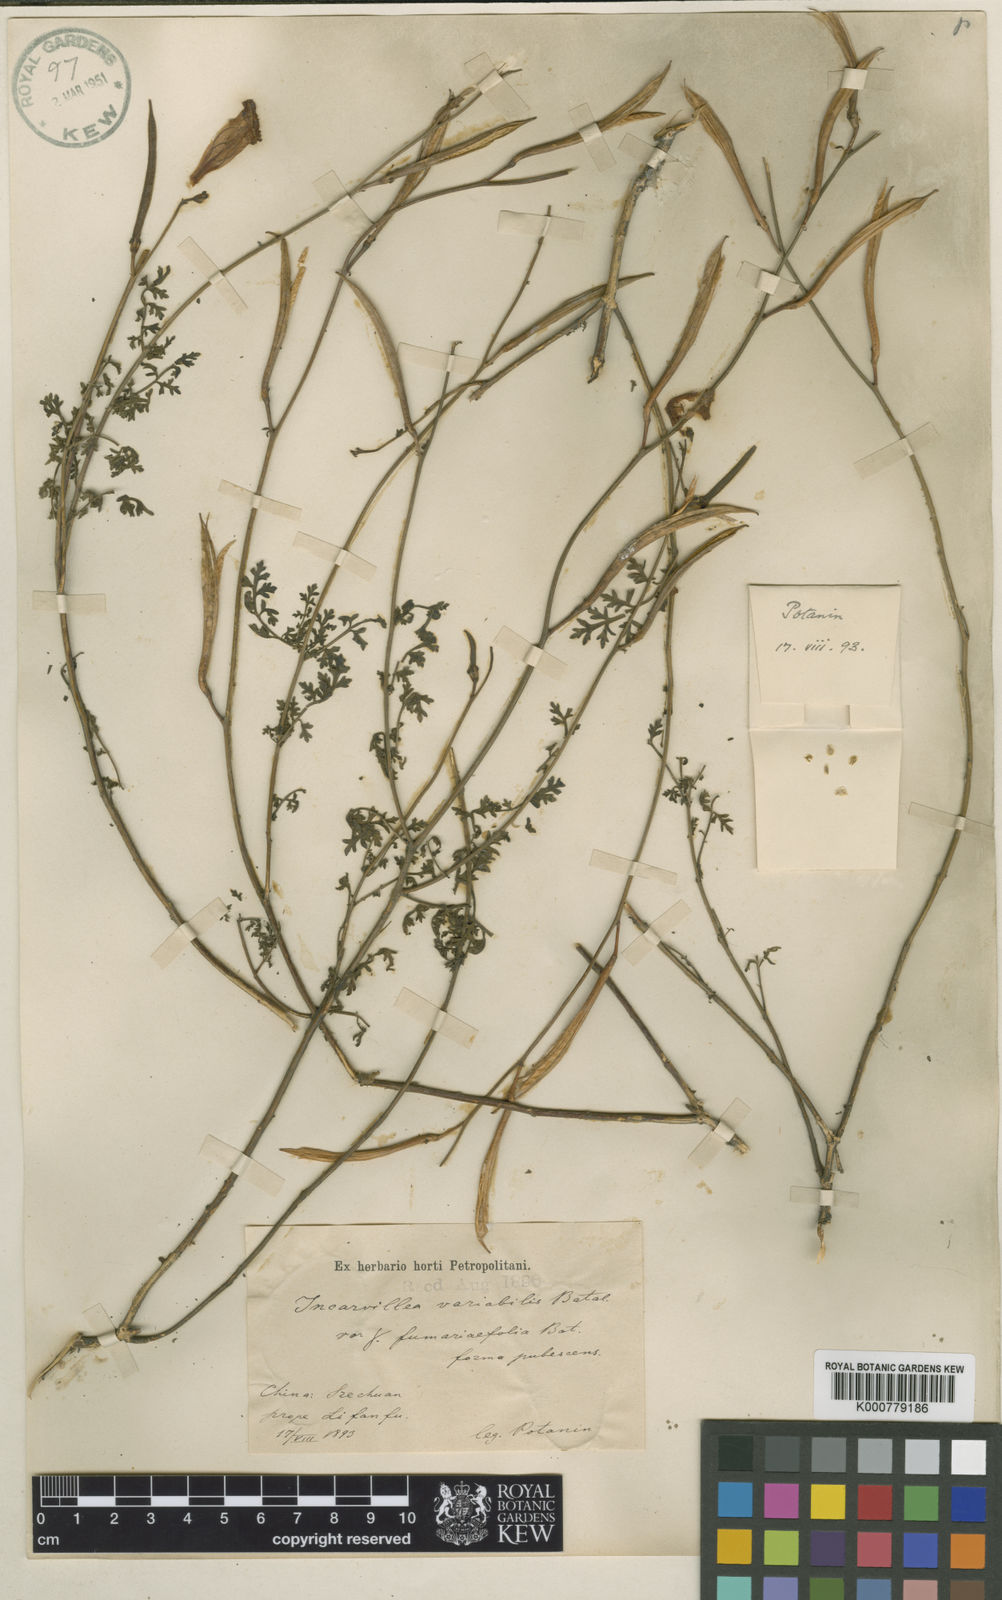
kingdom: Plantae
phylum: Tracheophyta
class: Magnoliopsida
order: Lamiales
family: Bignoniaceae
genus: Incarvillea
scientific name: Incarvillea sinensis
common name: Trumpet-flower
